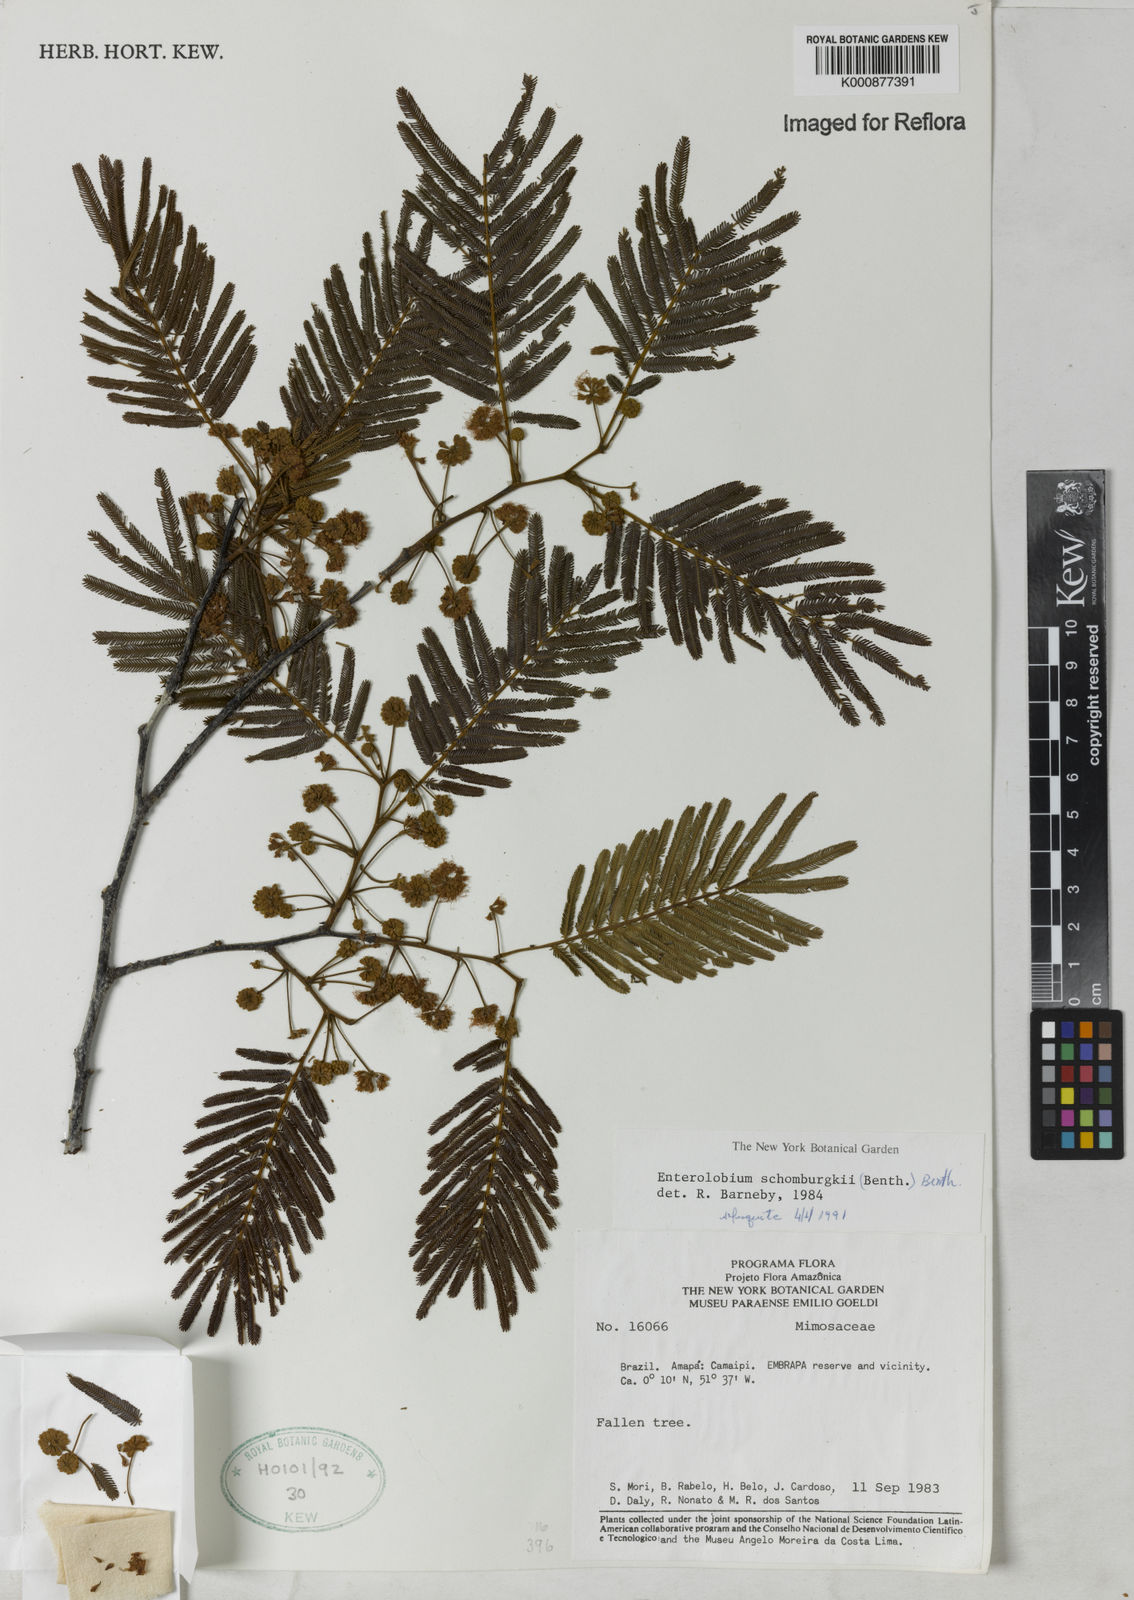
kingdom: Plantae
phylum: Tracheophyta
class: Magnoliopsida
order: Fabales
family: Fabaceae
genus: Enterolobium
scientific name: Enterolobium schomburgkii
